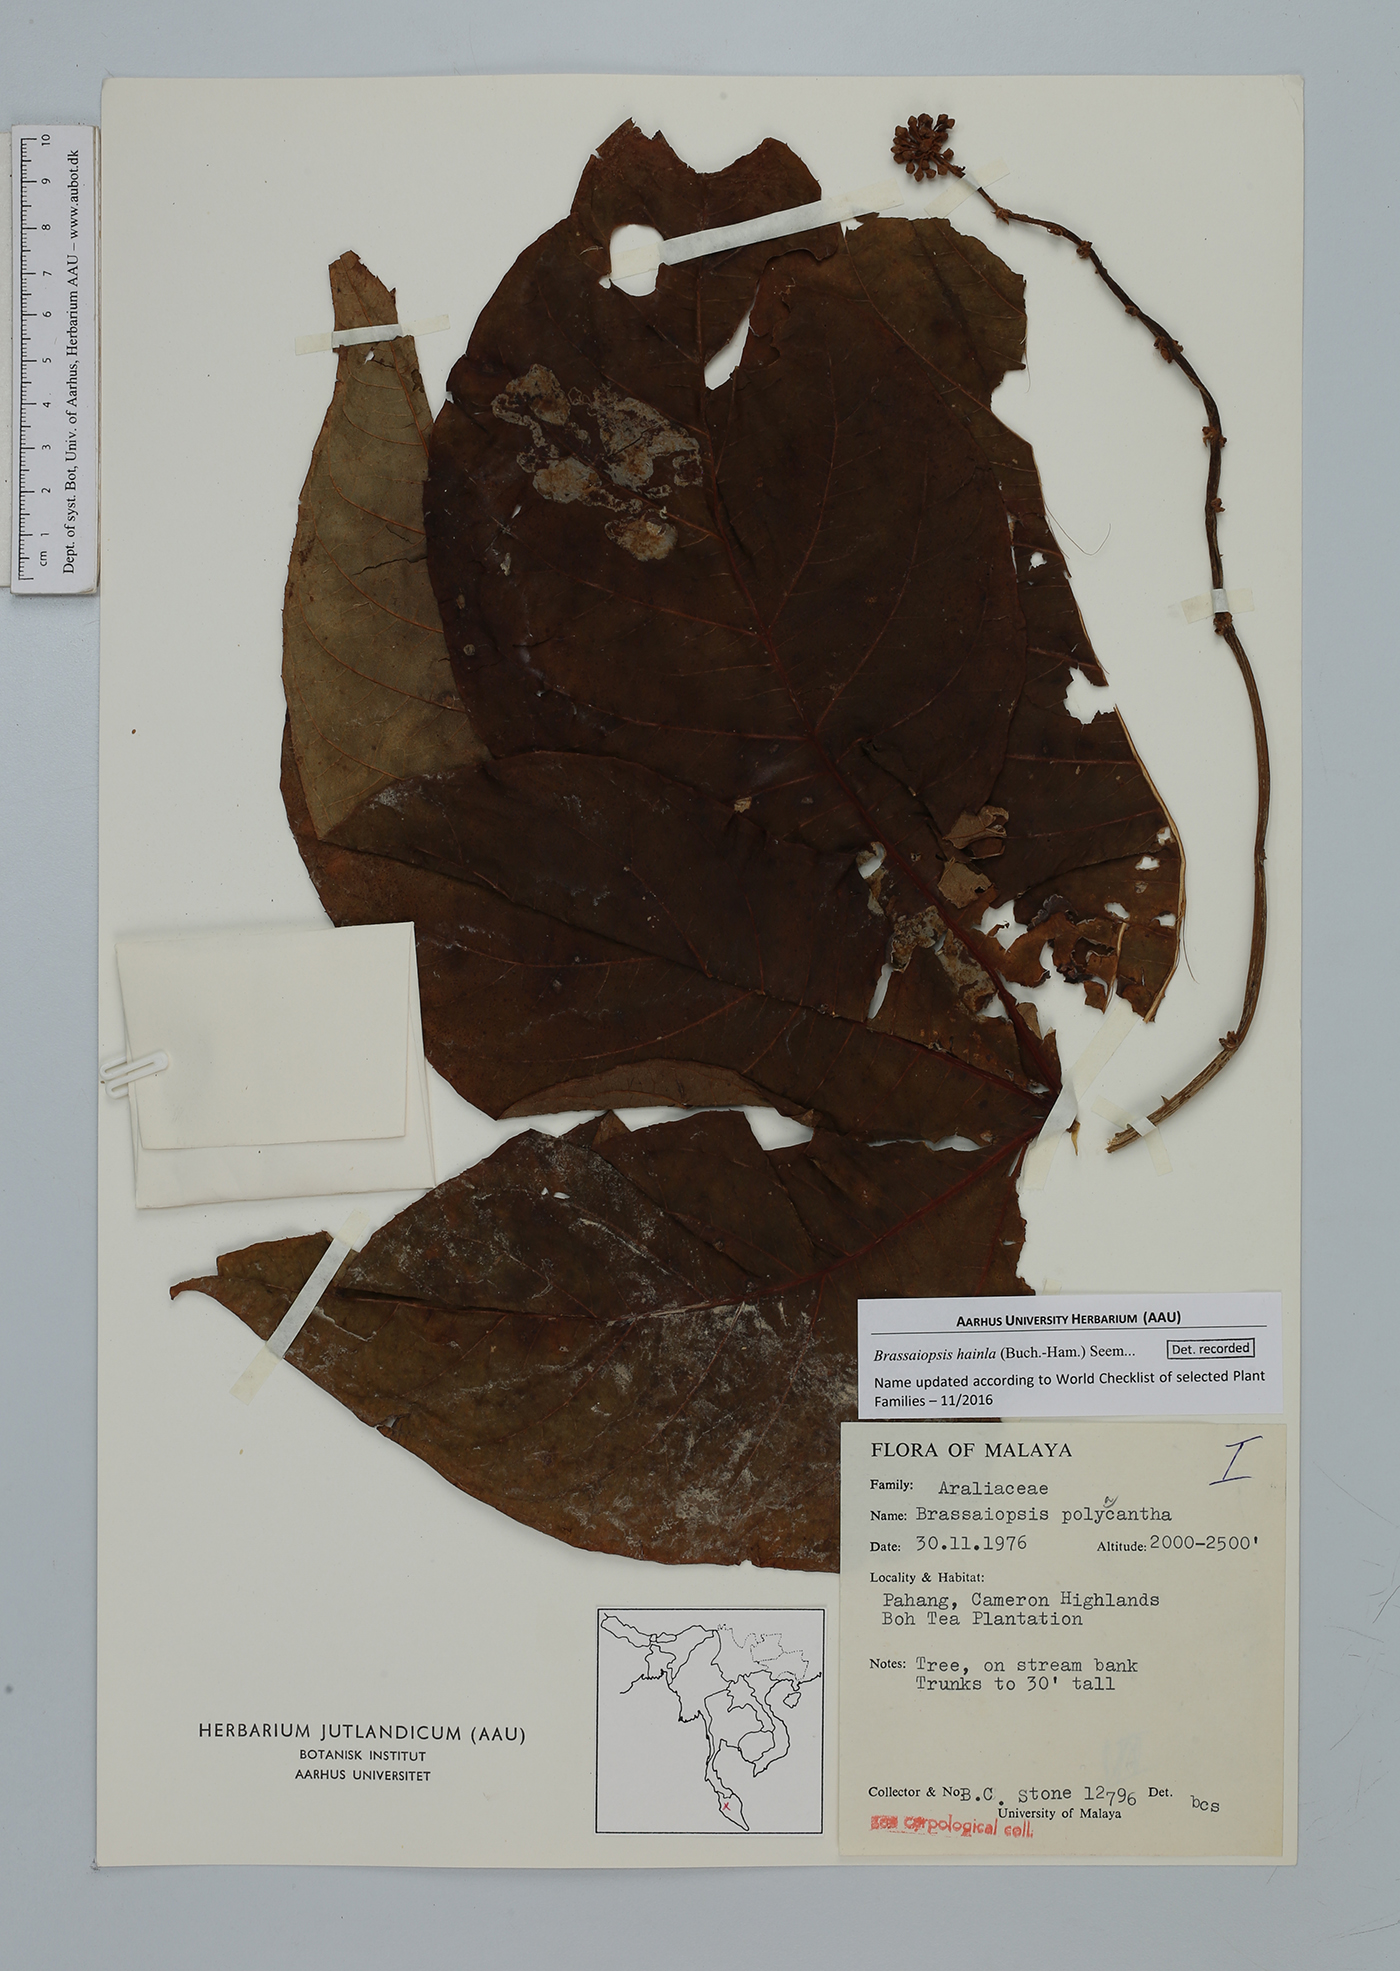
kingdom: Plantae
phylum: Tracheophyta
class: Magnoliopsida
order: Apiales
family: Araliaceae
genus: Brassaiopsis
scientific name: Brassaiopsis hainla
